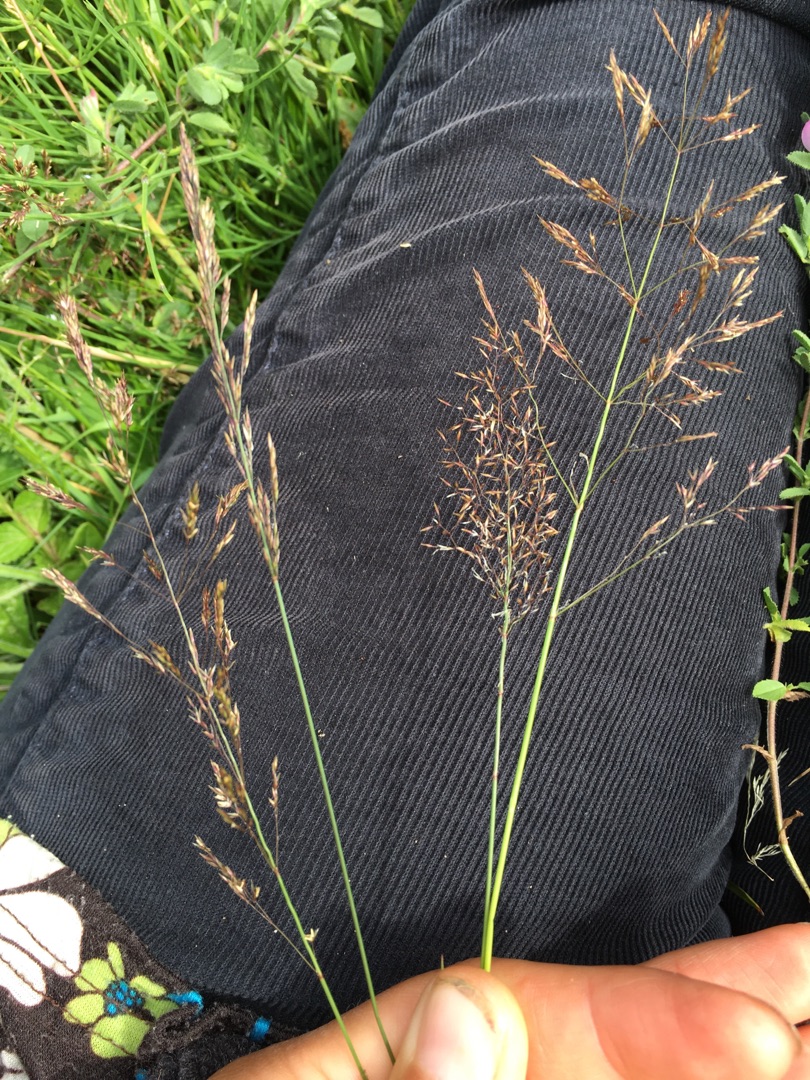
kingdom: Plantae
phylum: Tracheophyta
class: Liliopsida
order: Poales
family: Poaceae
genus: Agrostis
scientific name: Agrostis gigantea
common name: Stortoppet hvene
